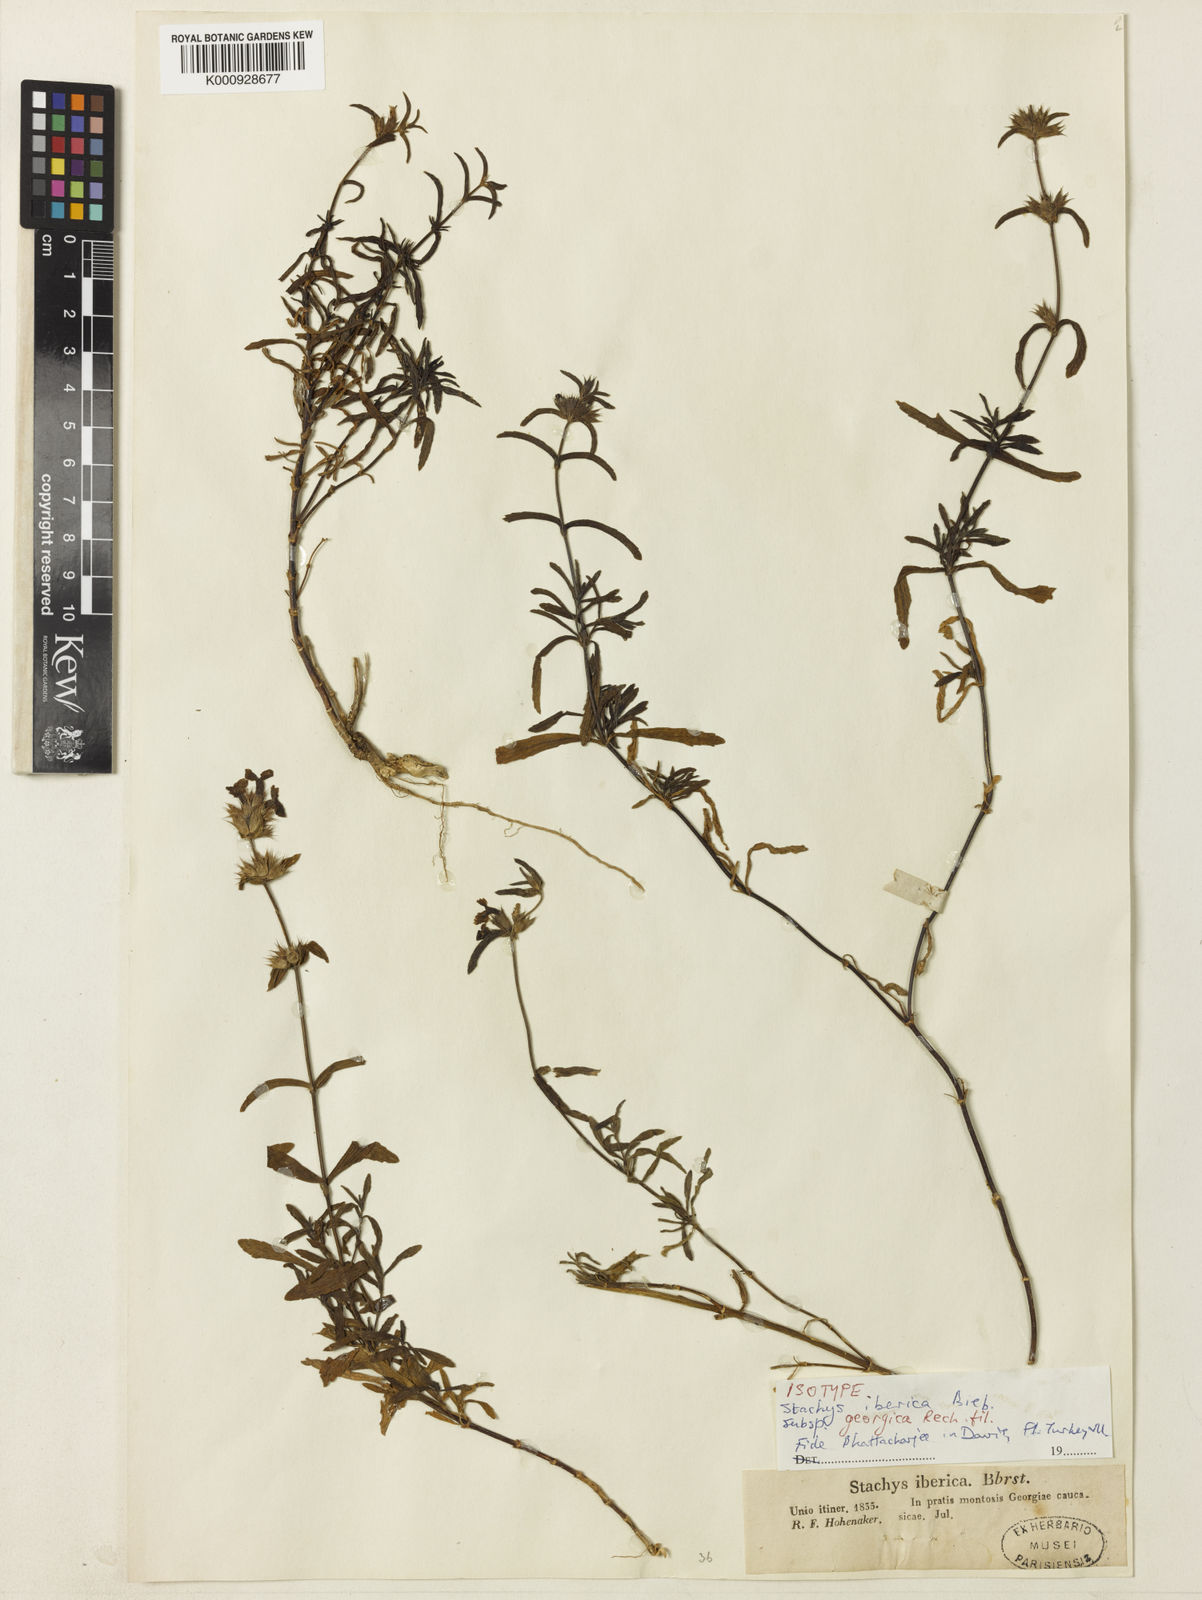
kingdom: Plantae
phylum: Tracheophyta
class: Magnoliopsida
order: Lamiales
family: Lamiaceae
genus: Stachys
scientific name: Stachys iberica
